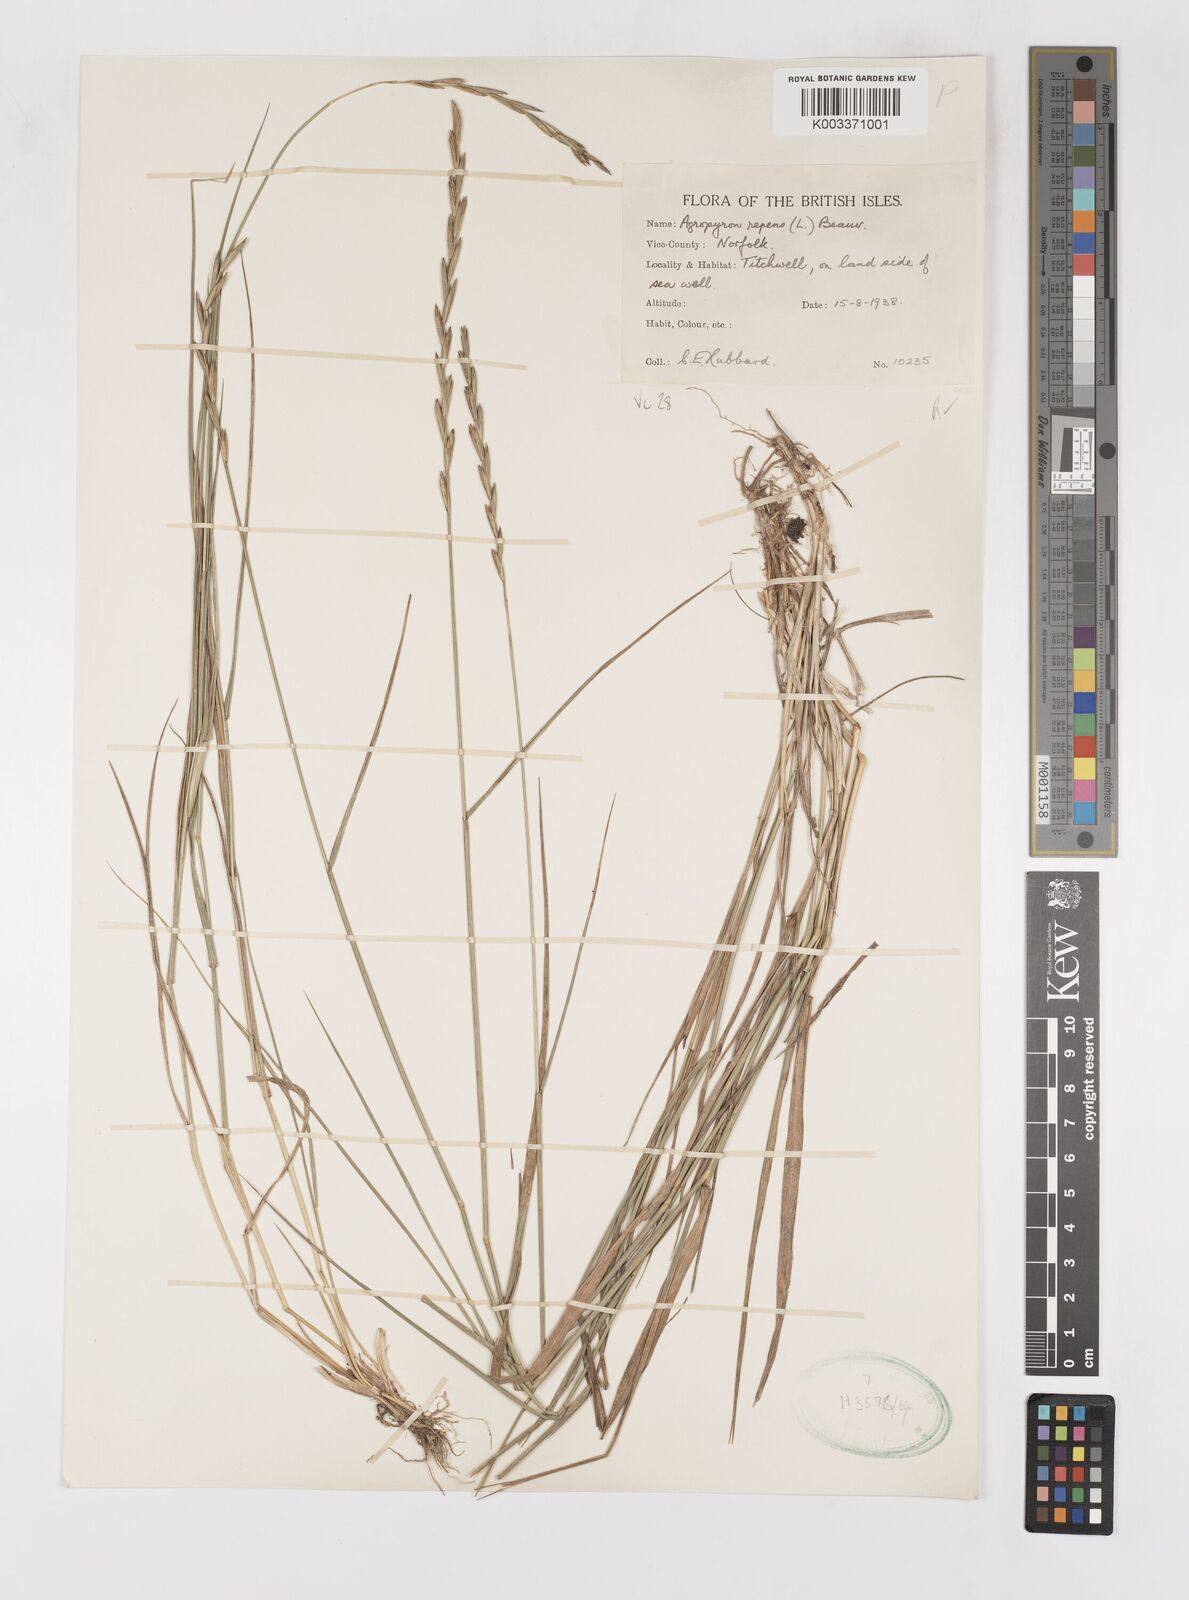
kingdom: Plantae
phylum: Tracheophyta
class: Liliopsida
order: Poales
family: Poaceae
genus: Elymus
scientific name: Elymus repens
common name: Quackgrass
